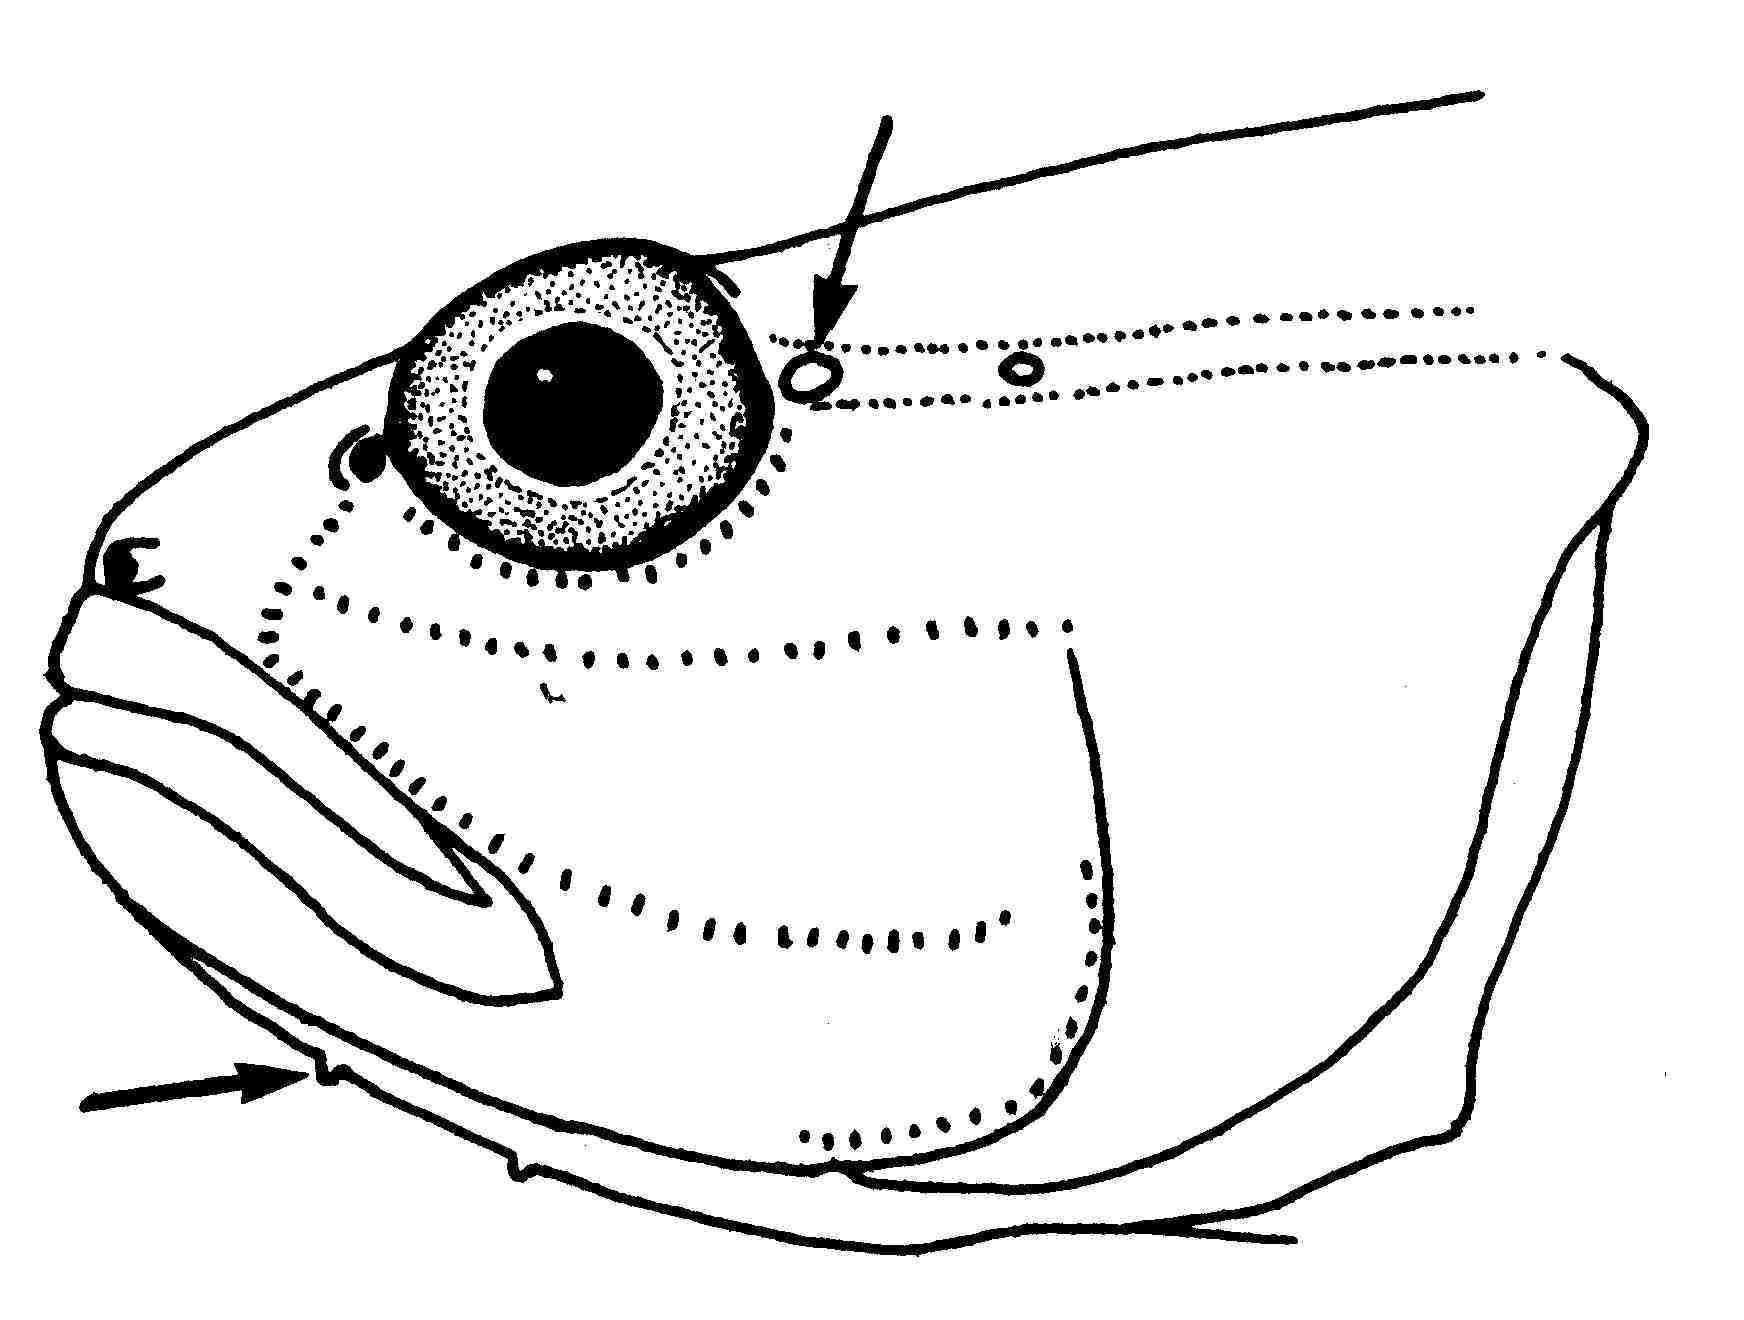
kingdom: Animalia
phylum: Chordata
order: Perciformes
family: Gobiidae
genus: Parachaeturichthys
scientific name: Parachaeturichthys polynema
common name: Taileyed goby
